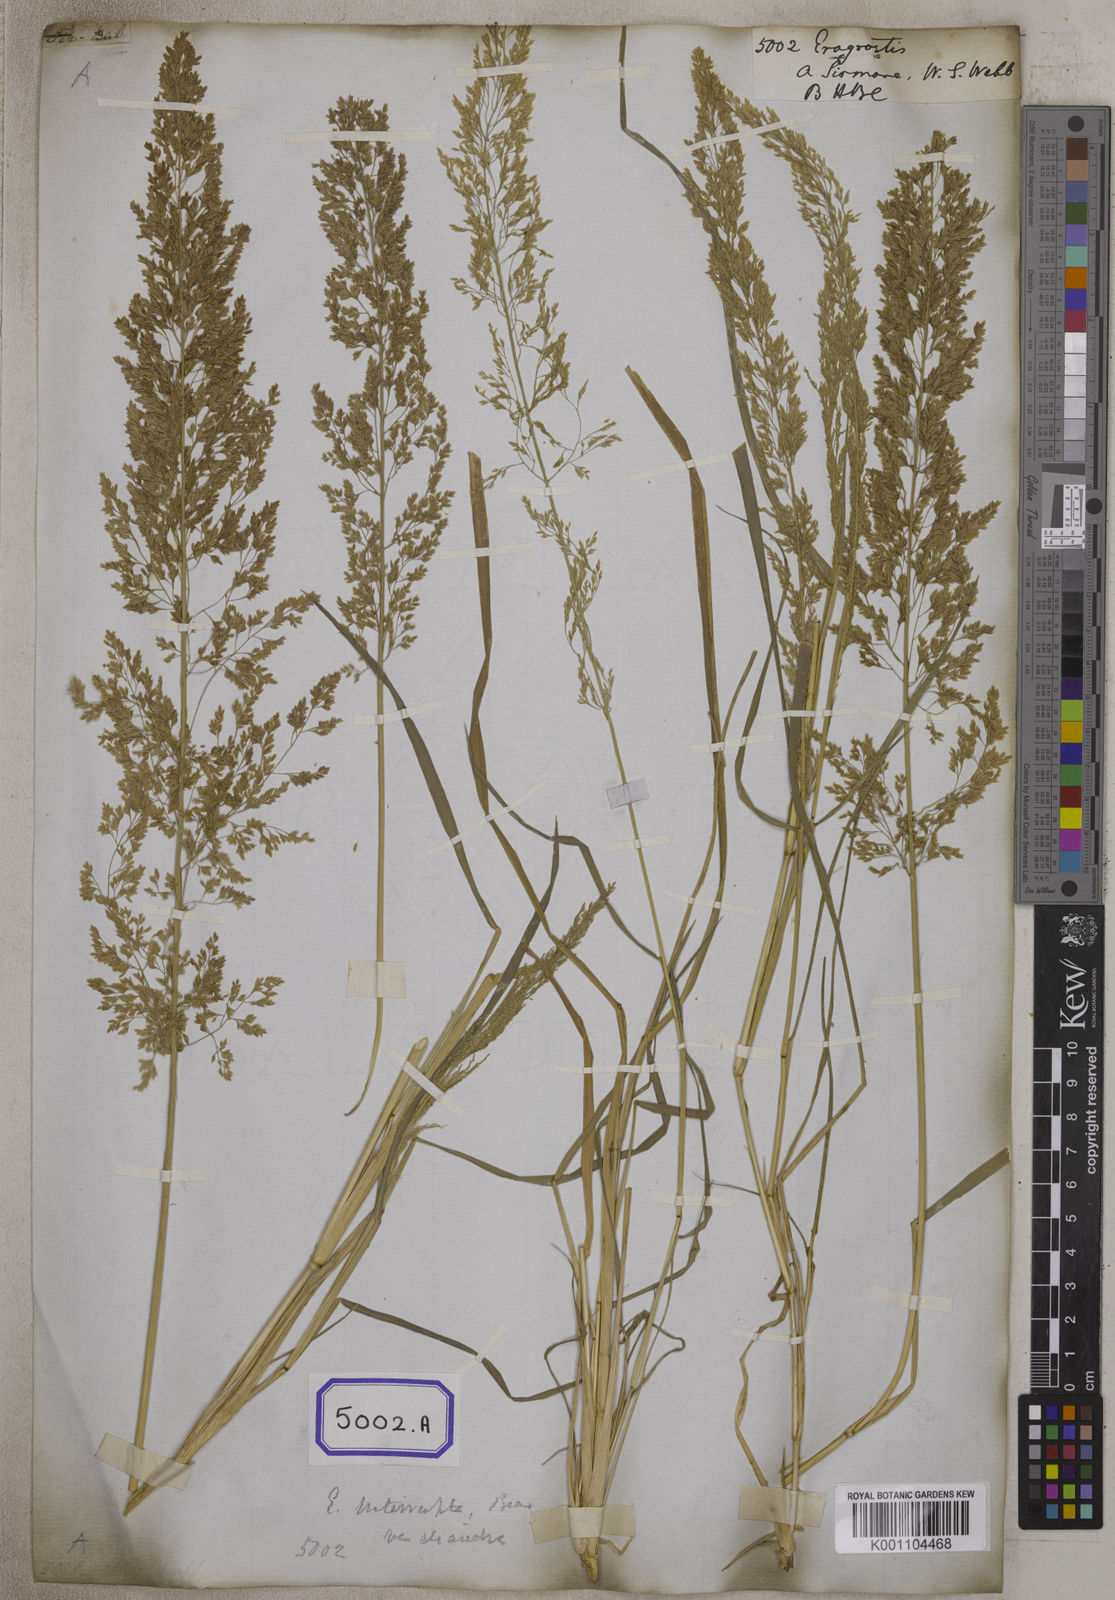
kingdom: Plantae
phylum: Tracheophyta
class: Liliopsida
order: Poales
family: Poaceae
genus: Eragrostis
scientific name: Eragrostis
